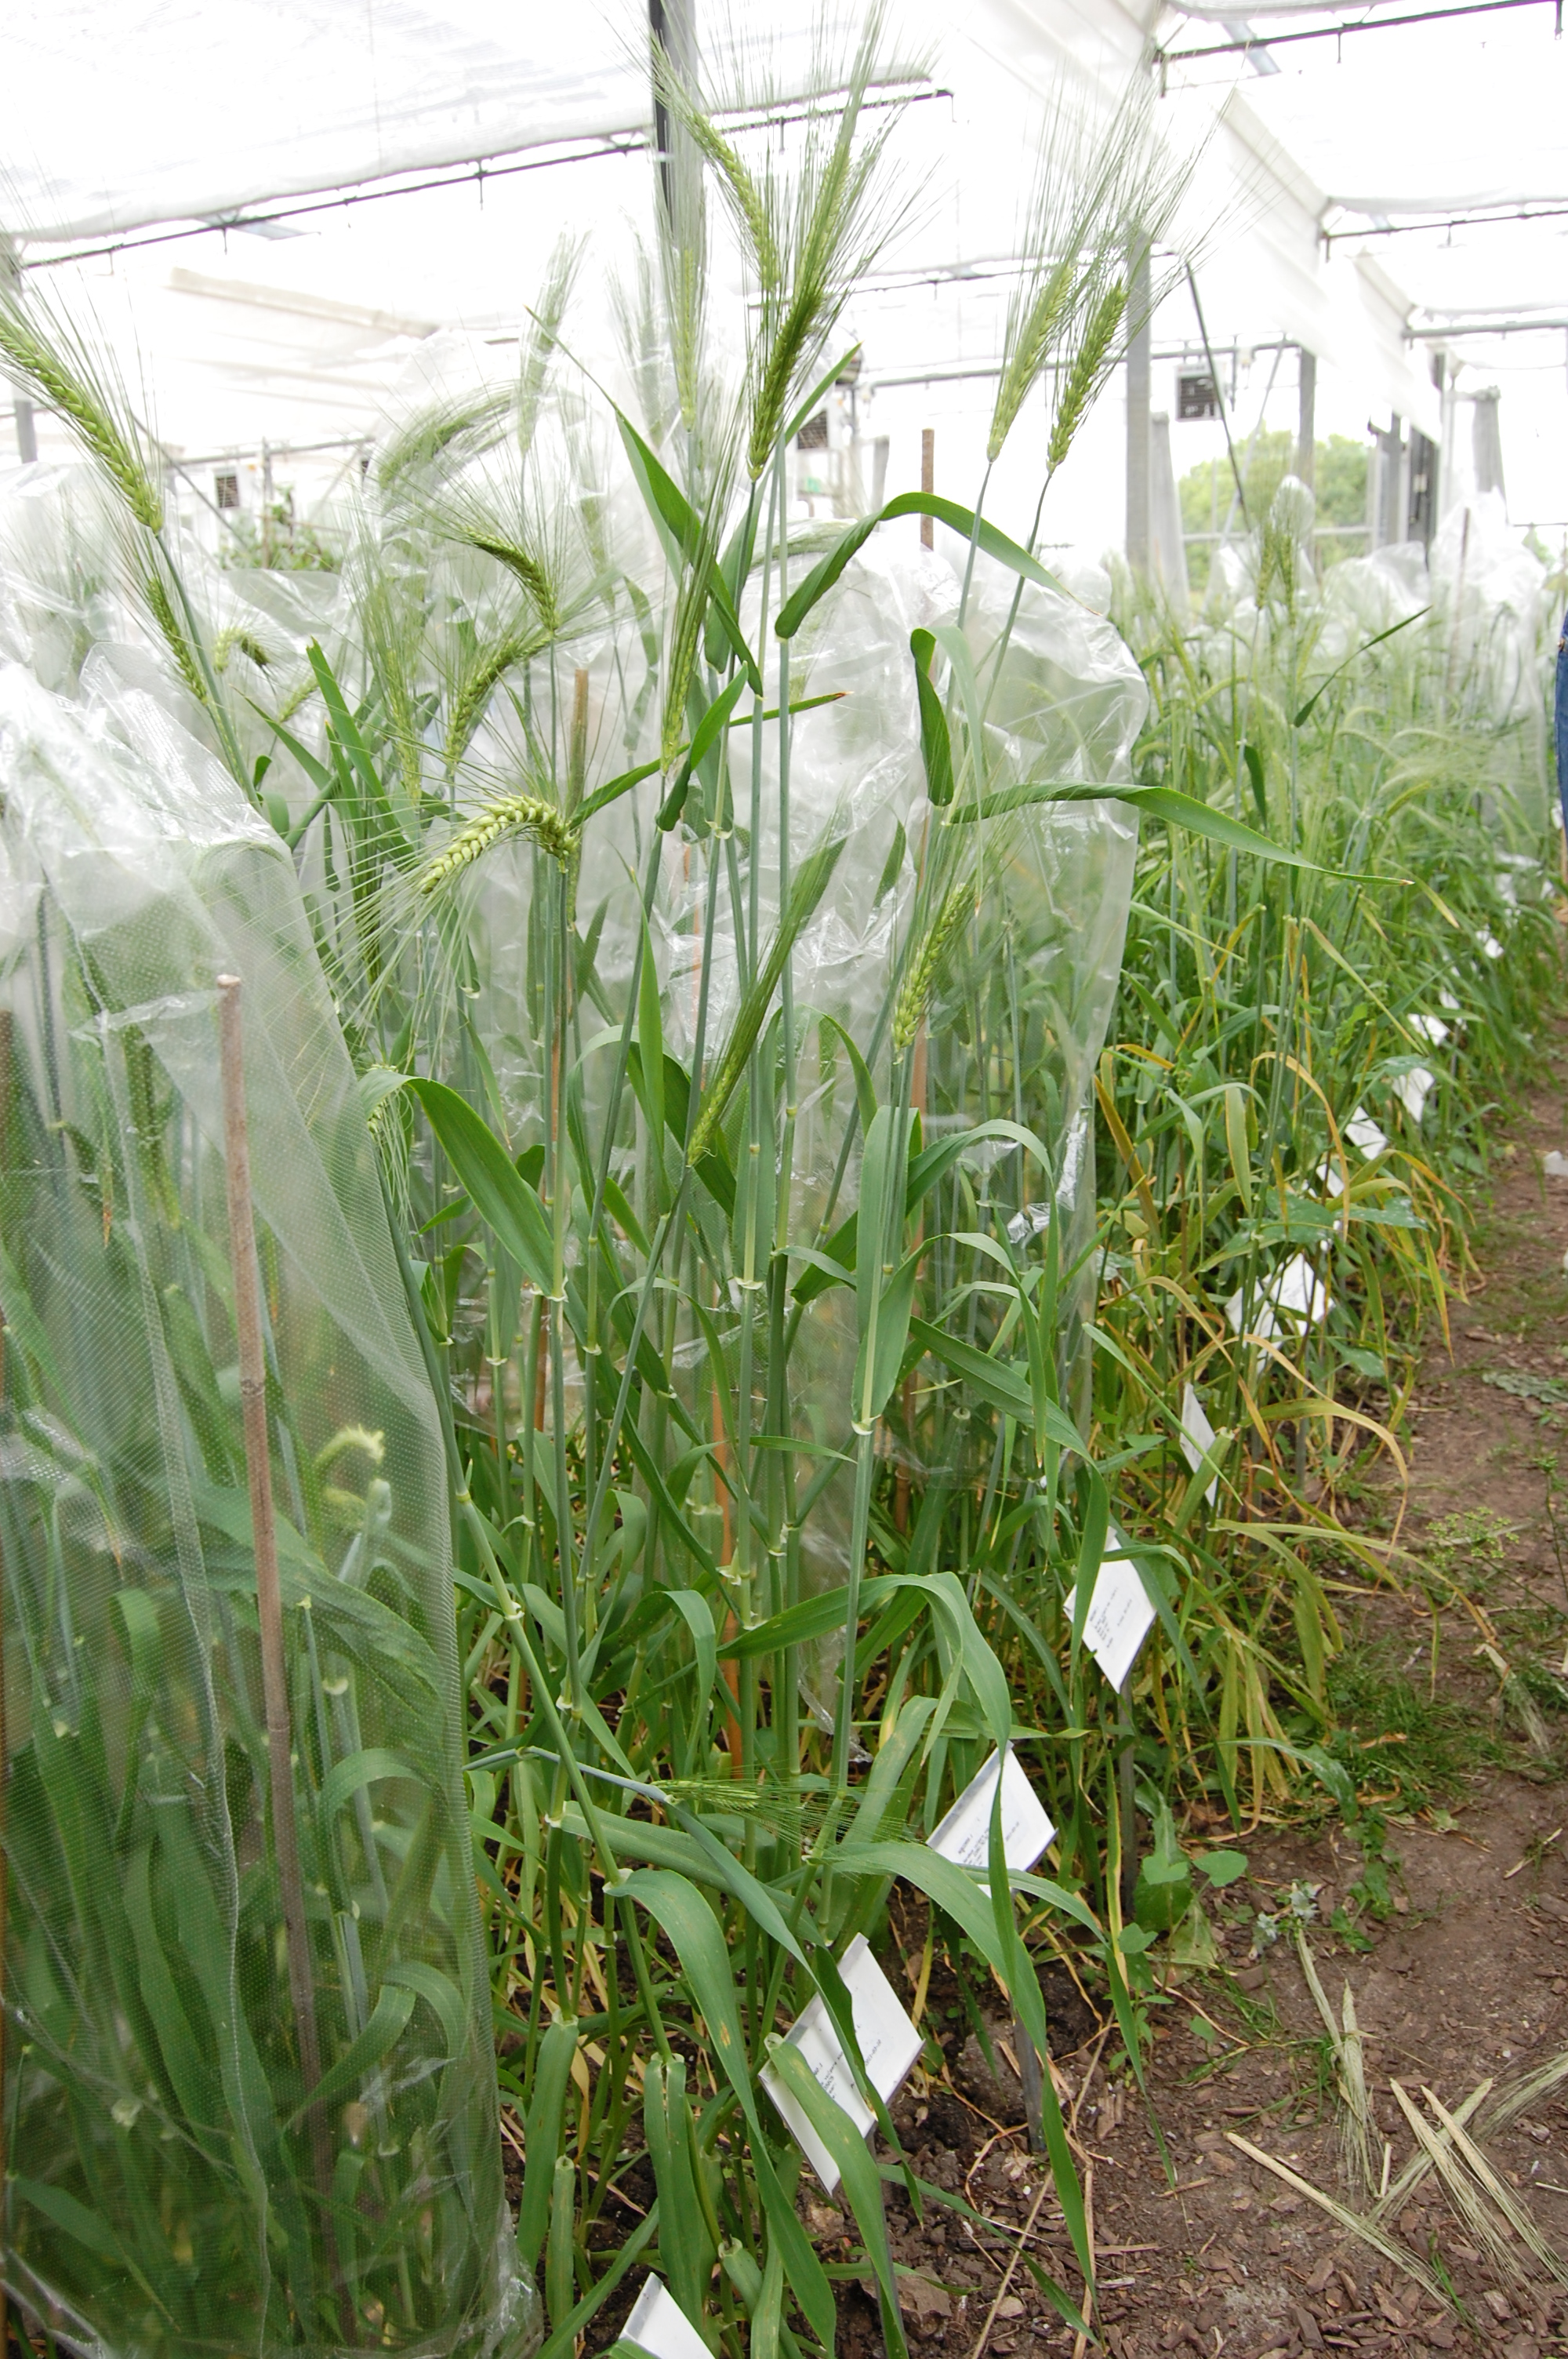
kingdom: Plantae
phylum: Tracheophyta
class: Liliopsida
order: Poales
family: Poaceae
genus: Hordeum
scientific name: Hordeum vulgare
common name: Common barley
